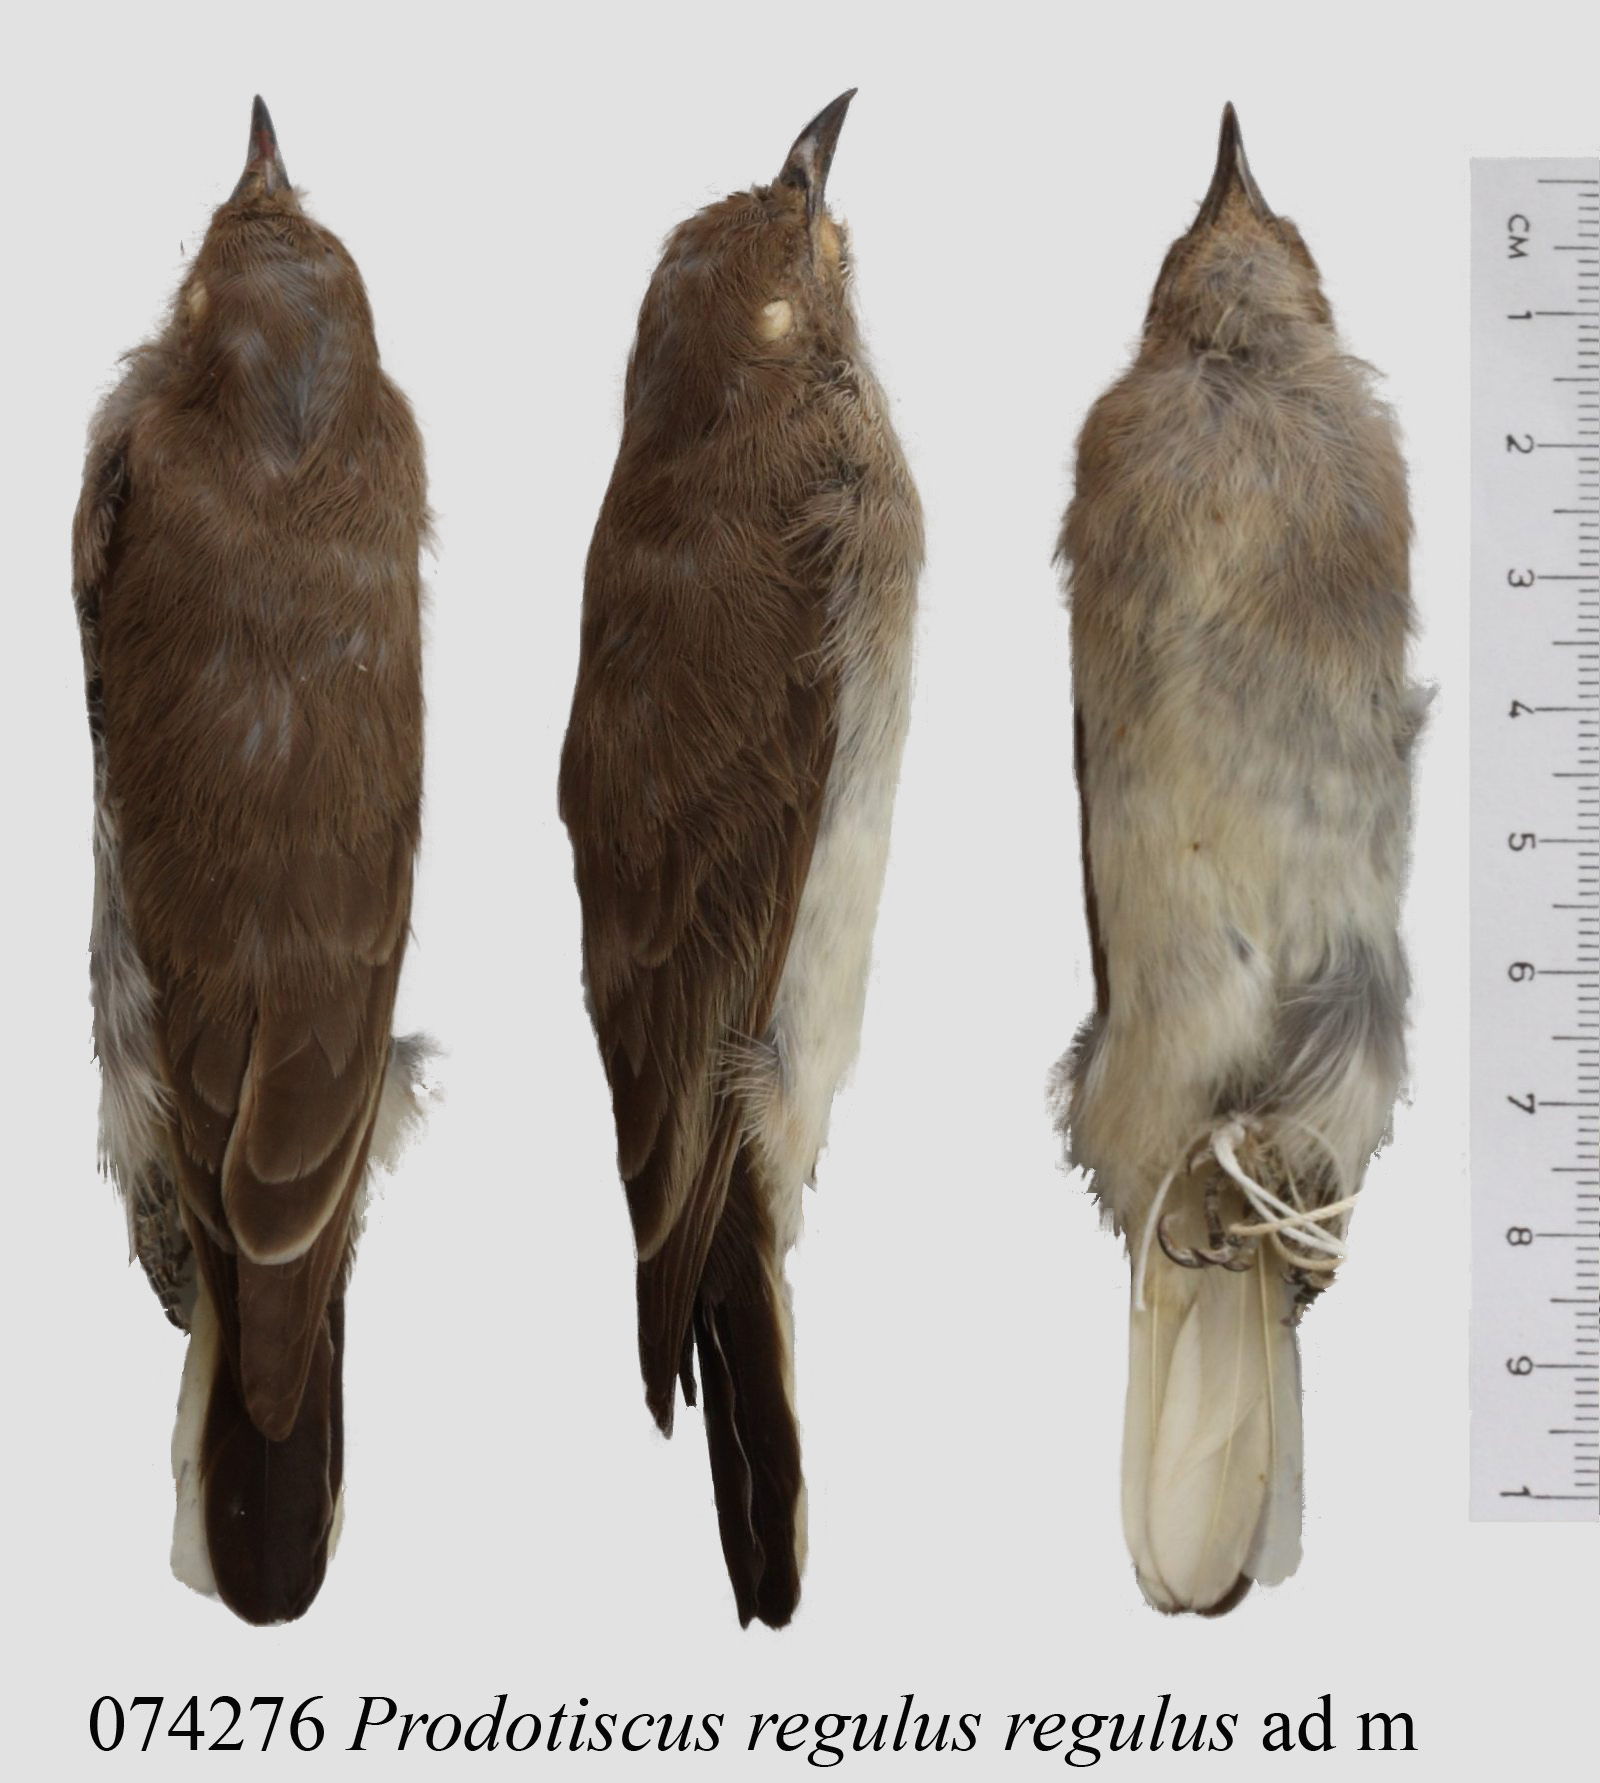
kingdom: Animalia
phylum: Chordata
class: Aves
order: Piciformes
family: Indicatoridae
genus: Prodotiscus
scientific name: Prodotiscus regulus
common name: Brown-backed honeybird
